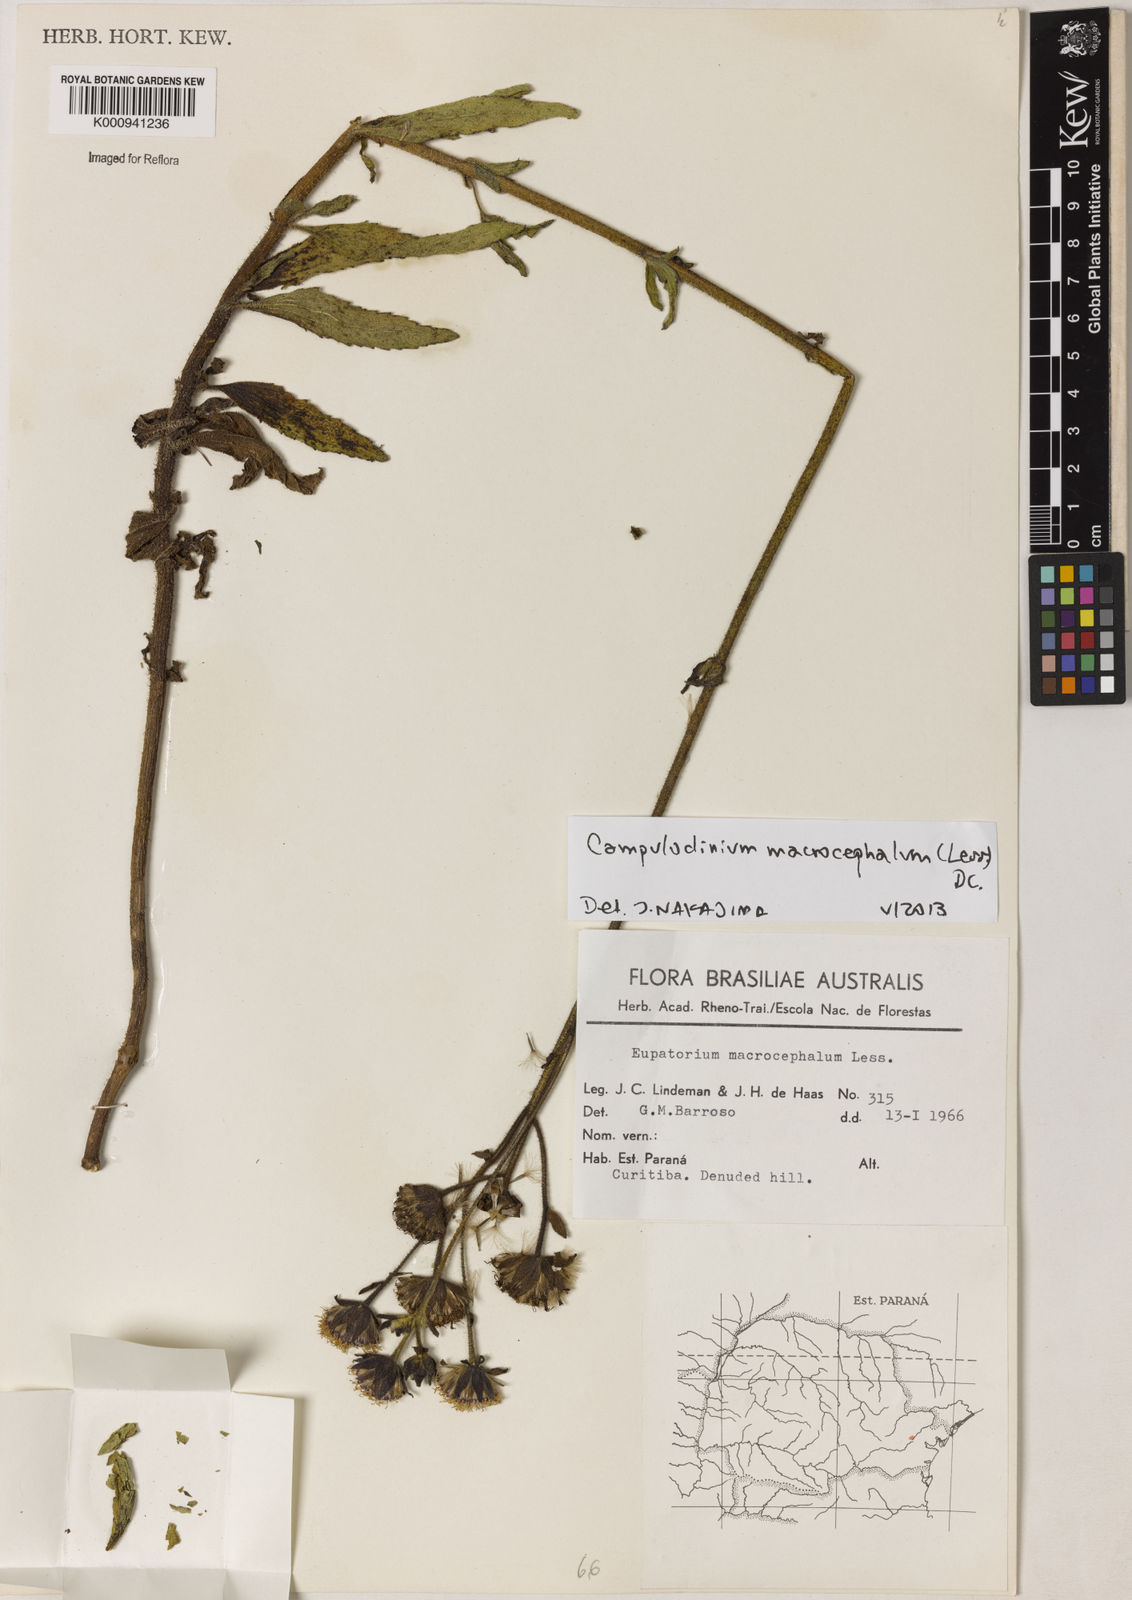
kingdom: Plantae
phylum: Tracheophyta
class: Magnoliopsida
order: Asterales
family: Asteraceae
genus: Campuloclinium
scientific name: Campuloclinium macrocephalum
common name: Pompomweed
